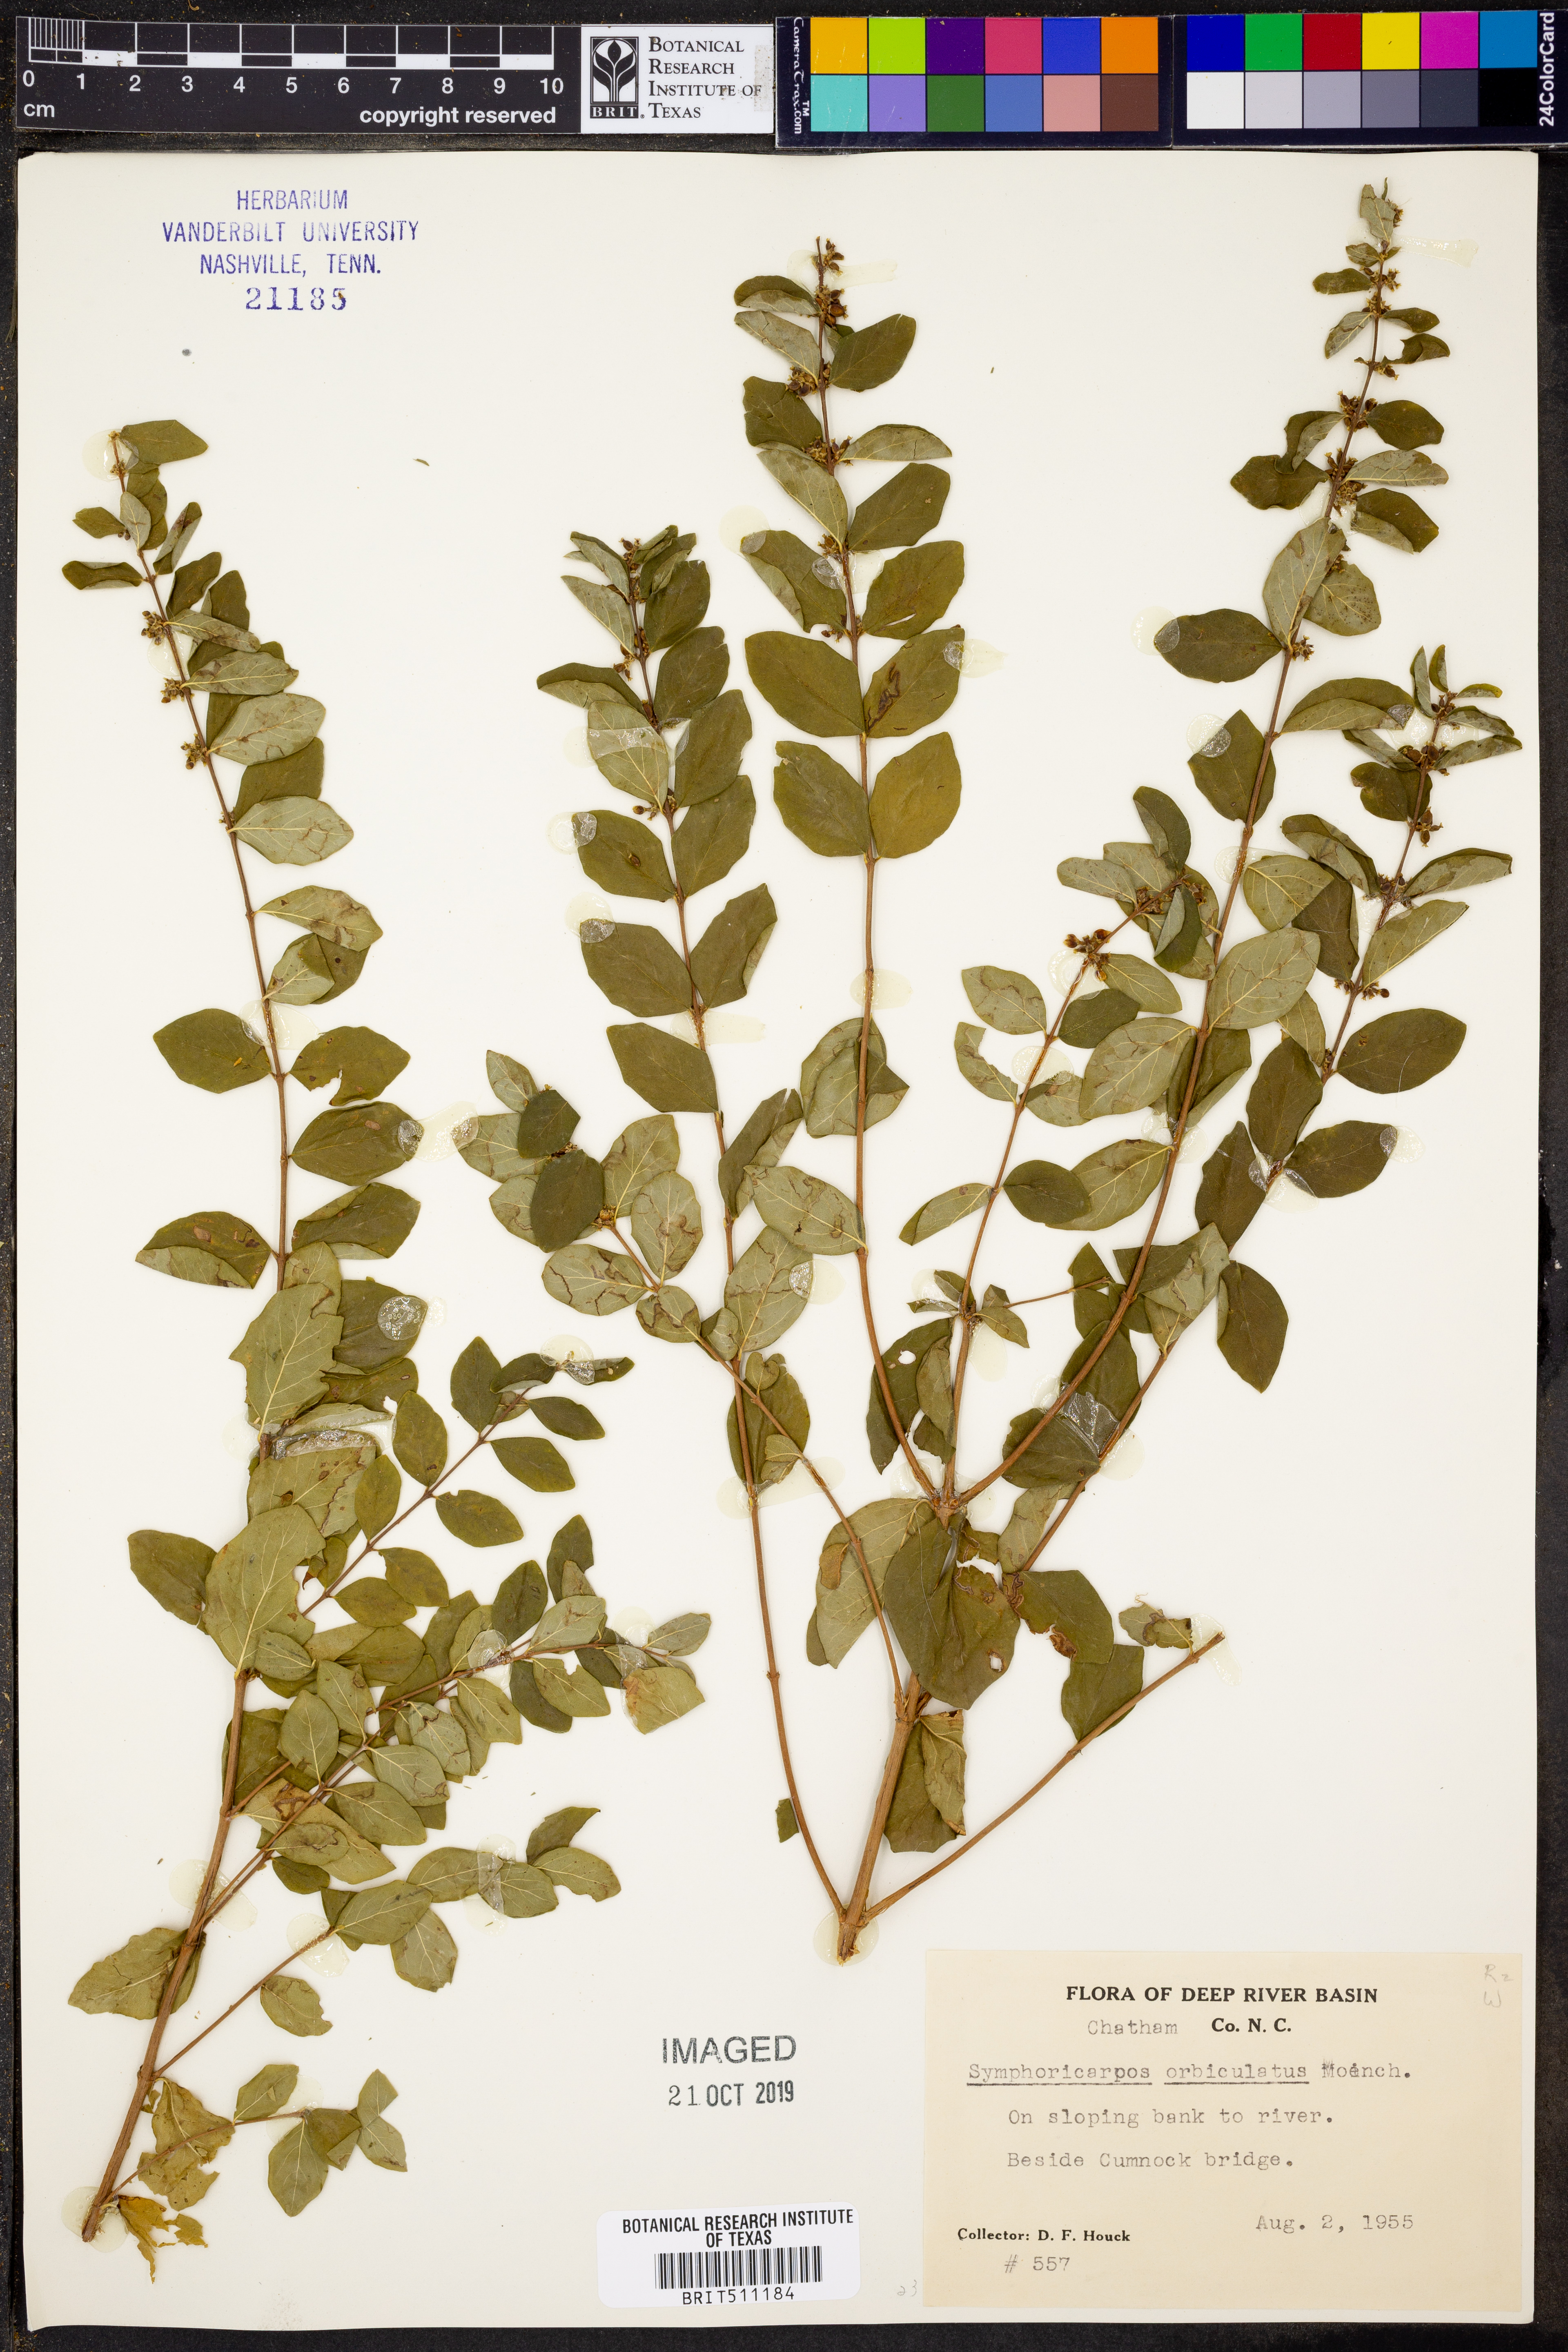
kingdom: Plantae
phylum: Tracheophyta
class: Magnoliopsida
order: Dipsacales
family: Caprifoliaceae
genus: Symphoricarpos
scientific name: Symphoricarpos orbiculatus
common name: Coralberry
